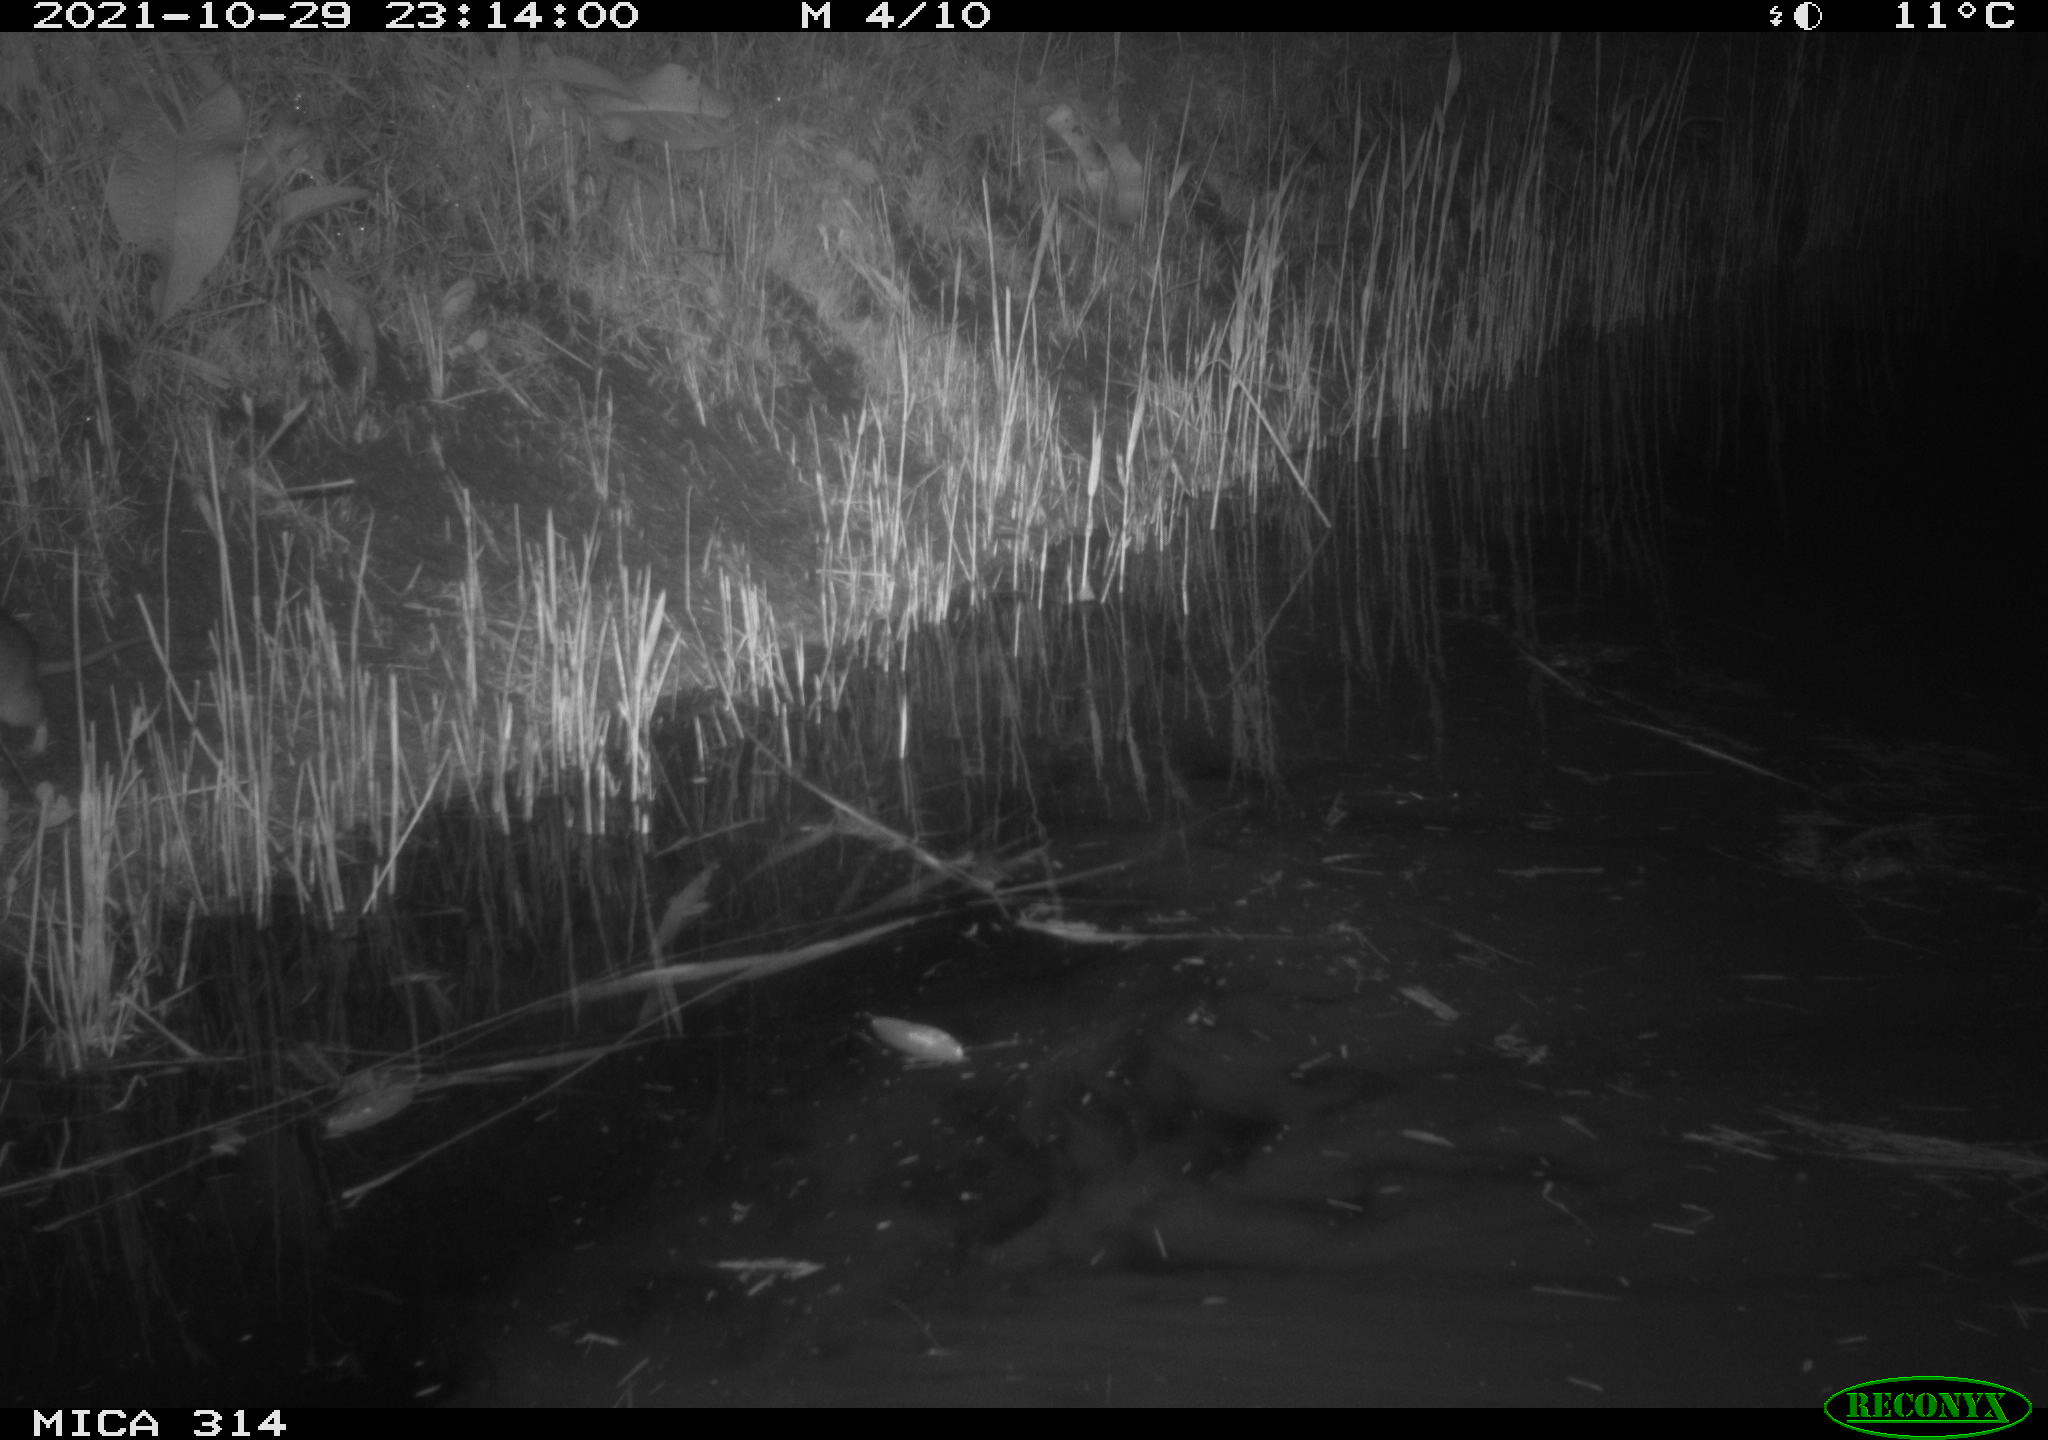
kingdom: Animalia
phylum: Chordata
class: Mammalia
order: Rodentia
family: Muridae
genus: Rattus
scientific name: Rattus norvegicus
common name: Brown rat
